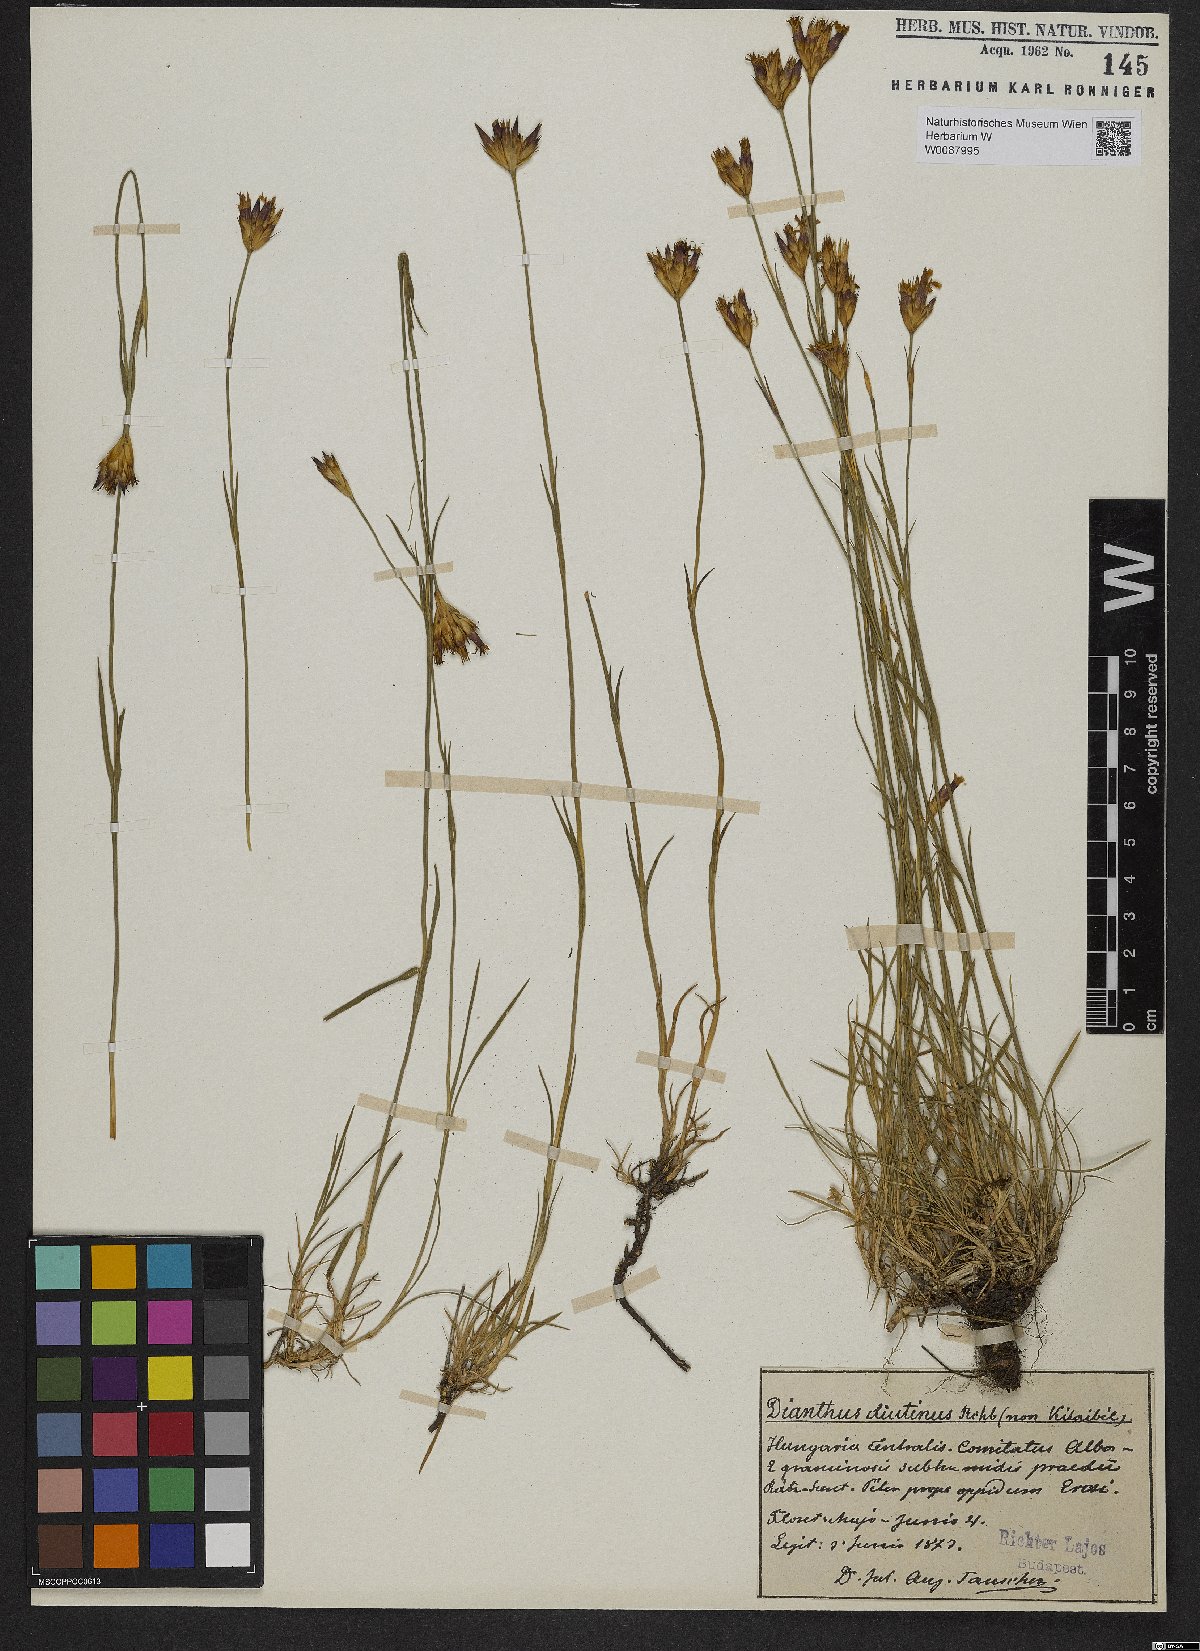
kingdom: Plantae
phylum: Tracheophyta
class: Magnoliopsida
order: Caryophyllales
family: Caryophyllaceae
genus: Dianthus
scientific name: Dianthus pontederae
